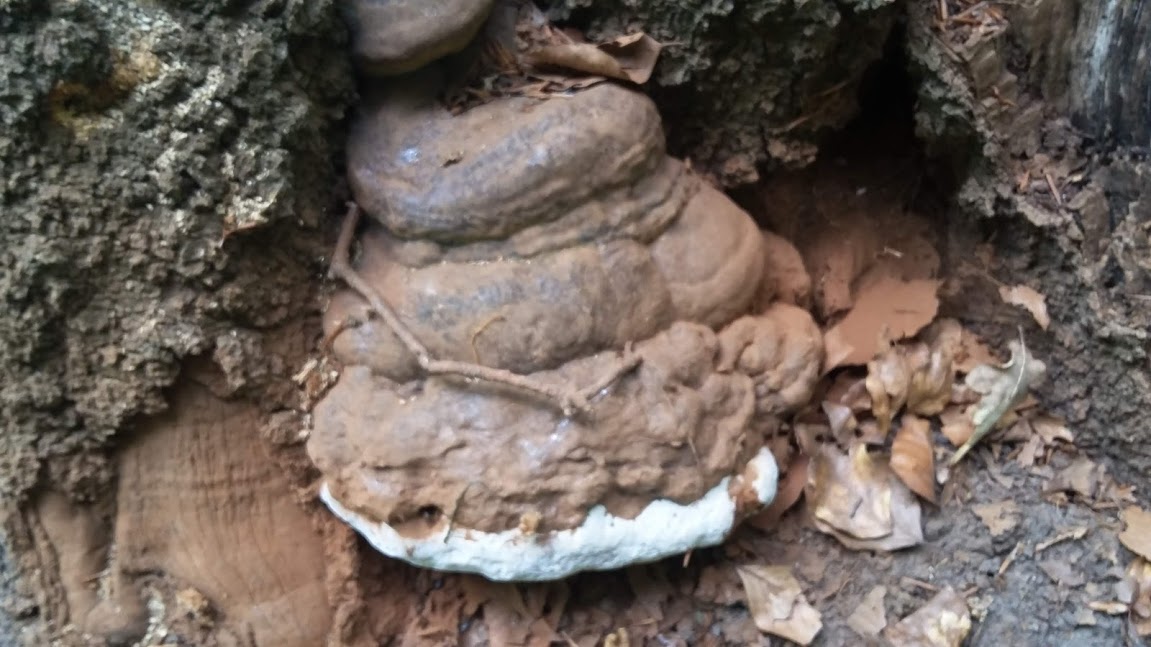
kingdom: Fungi
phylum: Basidiomycota
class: Agaricomycetes
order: Polyporales
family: Polyporaceae
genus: Ganoderma
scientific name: Ganoderma pfeifferi
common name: kobberrød lakporesvamp
